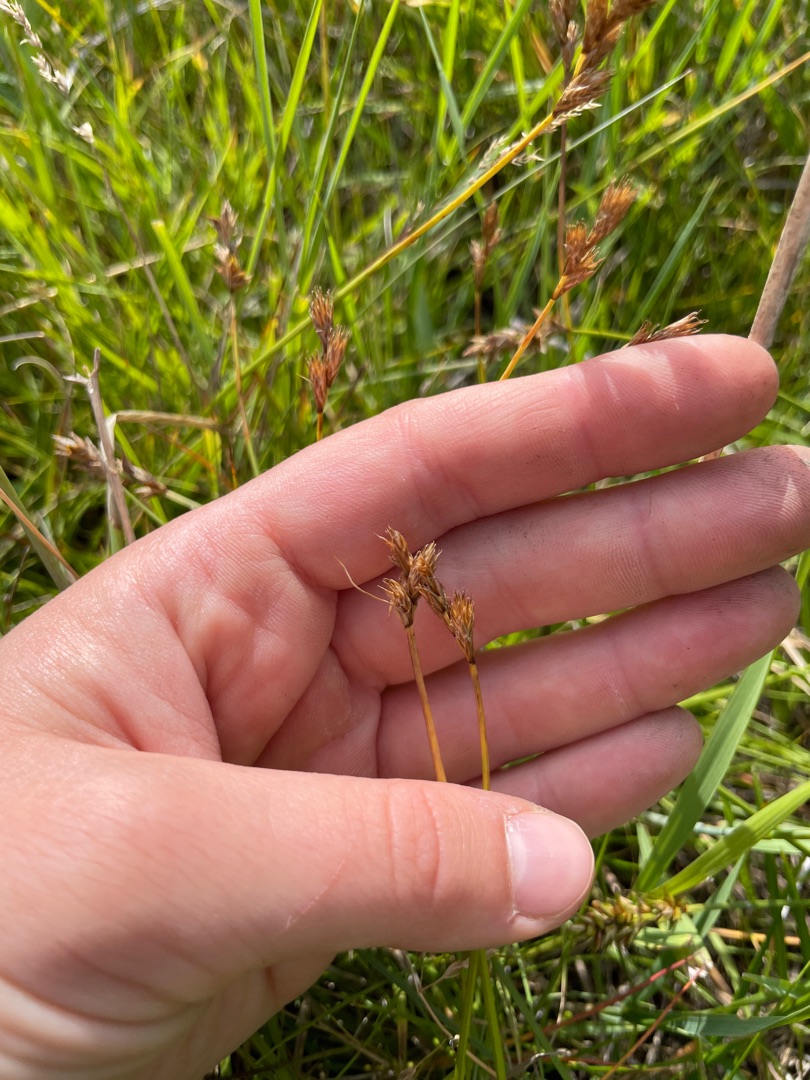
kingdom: Plantae
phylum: Tracheophyta
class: Liliopsida
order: Poales
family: Cyperaceae
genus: Carex
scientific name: Carex leporina
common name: Hare-star
